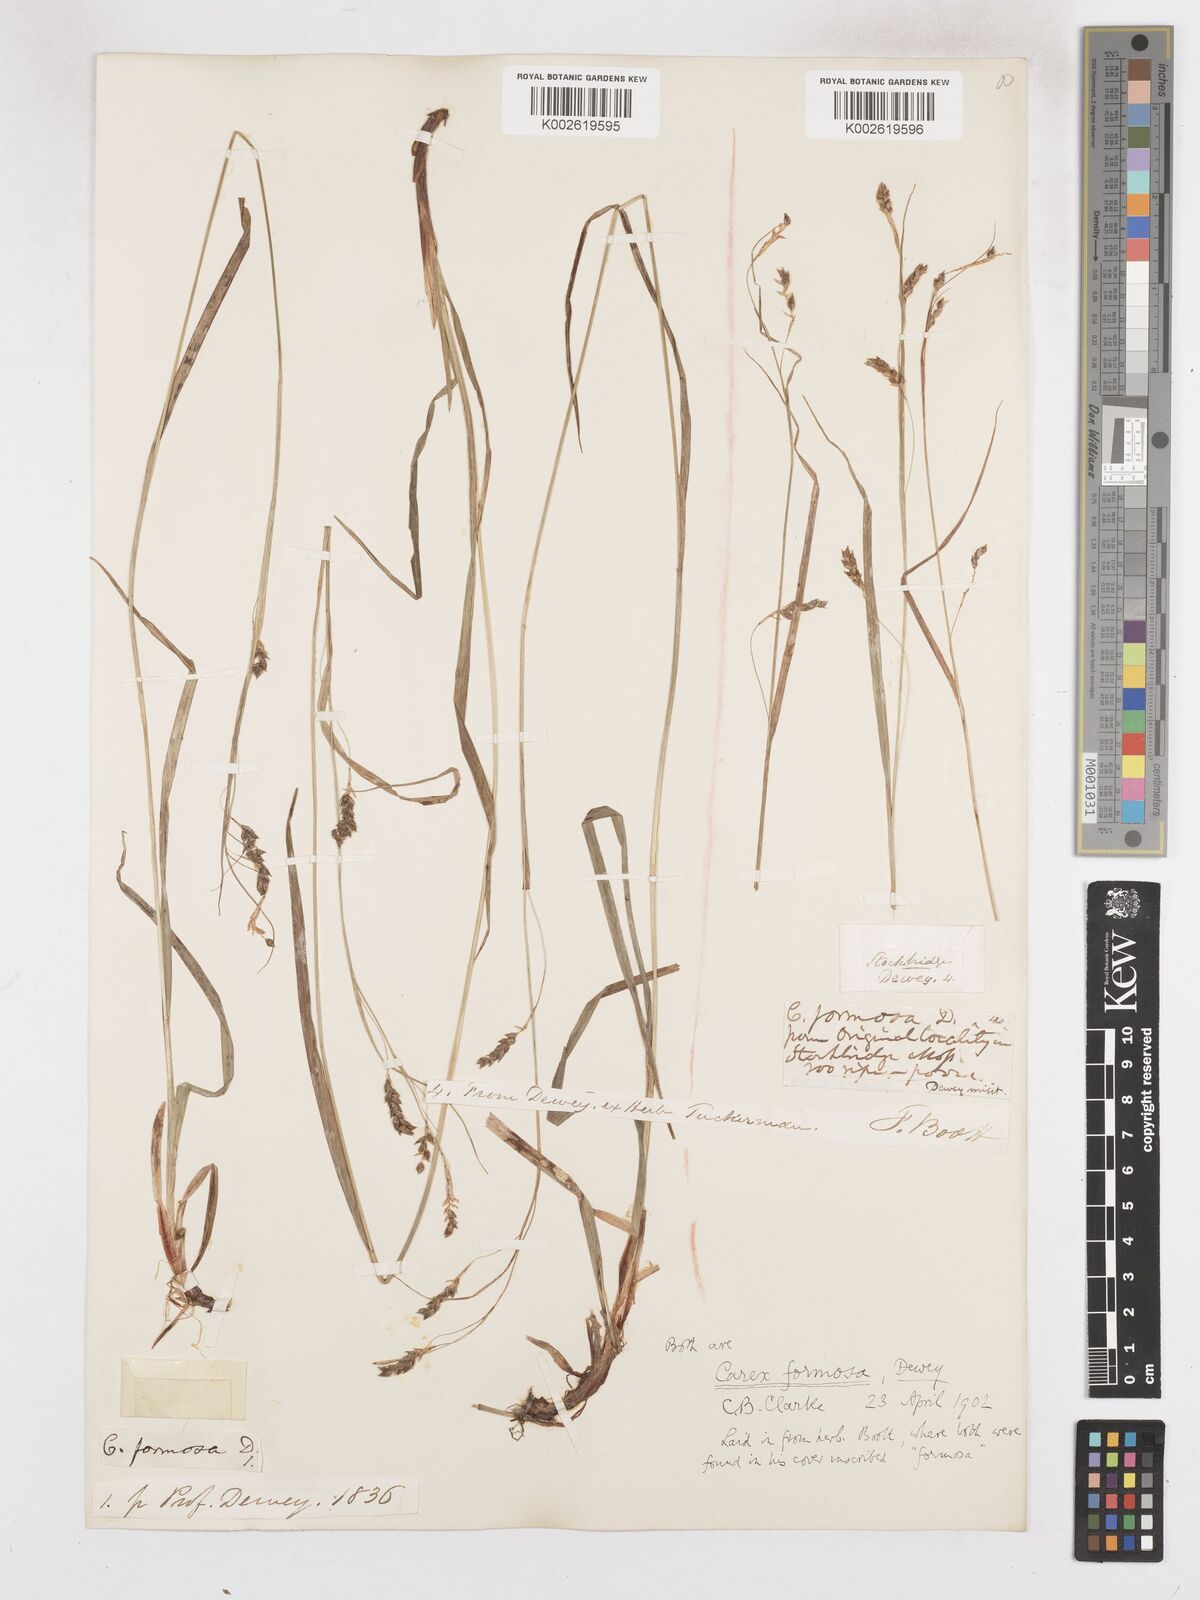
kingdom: Plantae
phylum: Tracheophyta
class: Liliopsida
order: Poales
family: Cyperaceae
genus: Carex
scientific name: Carex formosa
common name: Awnless graceful sedge
